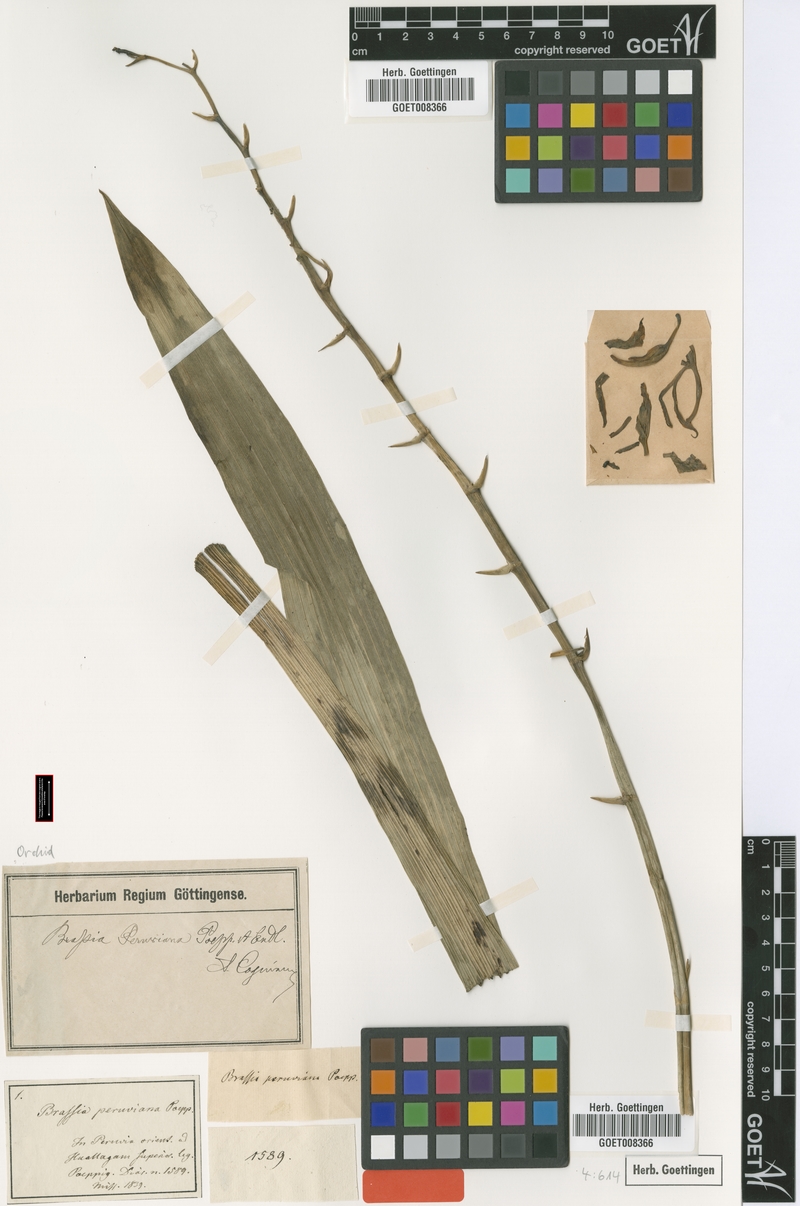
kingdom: Plantae
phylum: Tracheophyta
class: Liliopsida
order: Asparagales
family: Orchidaceae
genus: Brassia
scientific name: Brassia peruviana
